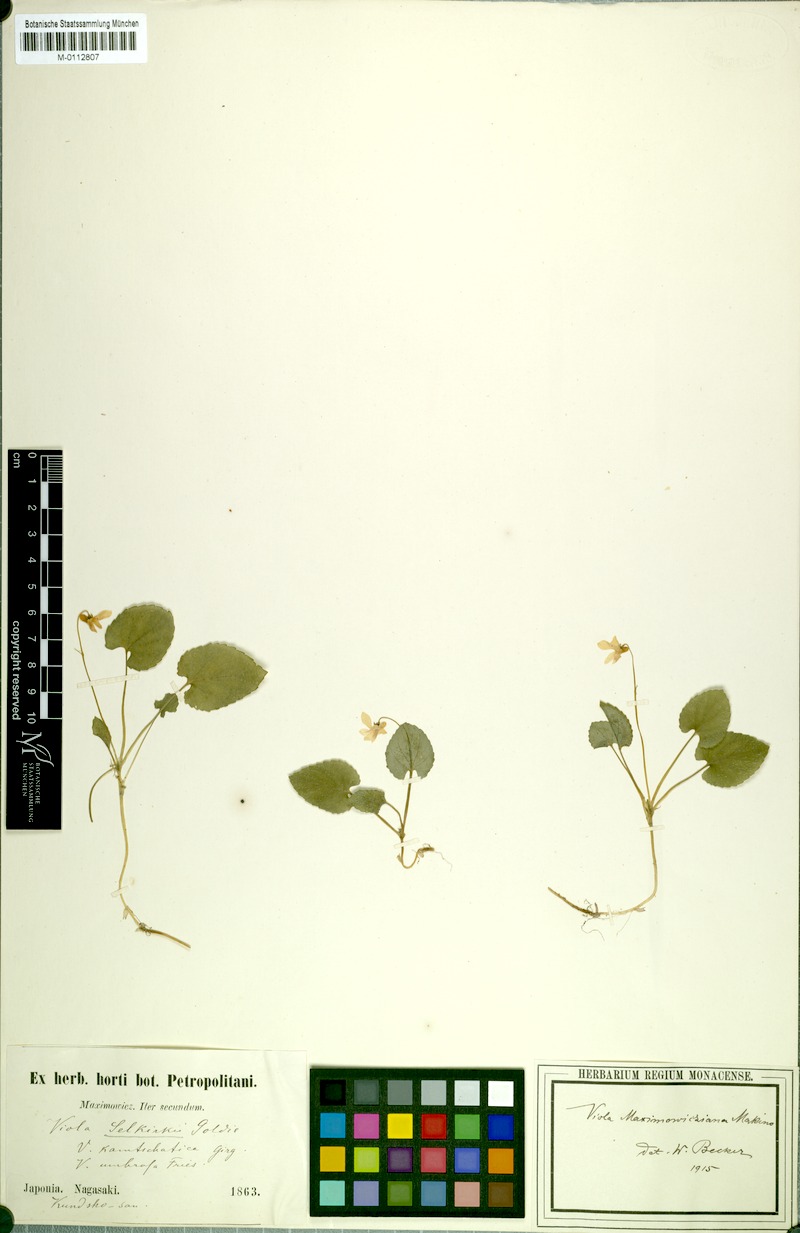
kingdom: Plantae
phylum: Tracheophyta
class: Magnoliopsida
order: Malpighiales
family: Violaceae
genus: Viola
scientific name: Viola maximowicziana
